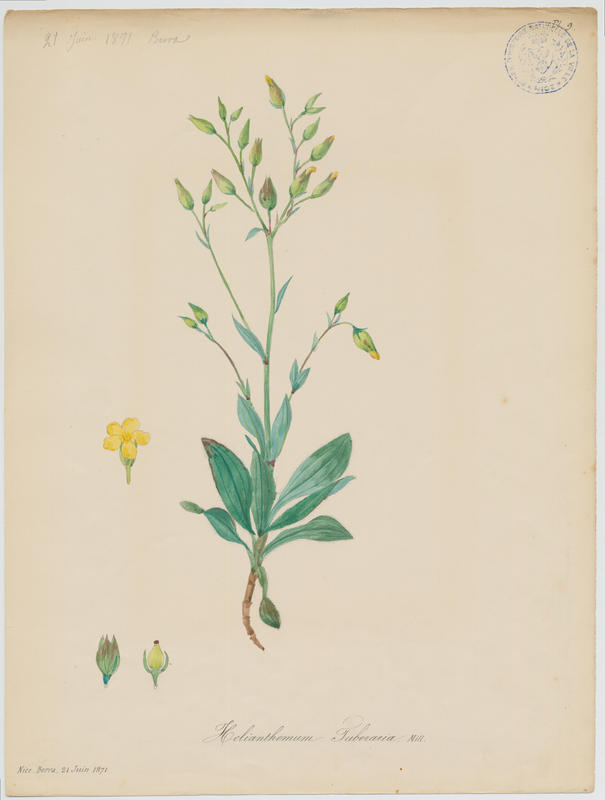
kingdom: Plantae
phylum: Tracheophyta
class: Magnoliopsida
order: Malvales
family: Cistaceae
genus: Tuberaria
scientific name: Tuberaria lignosa
